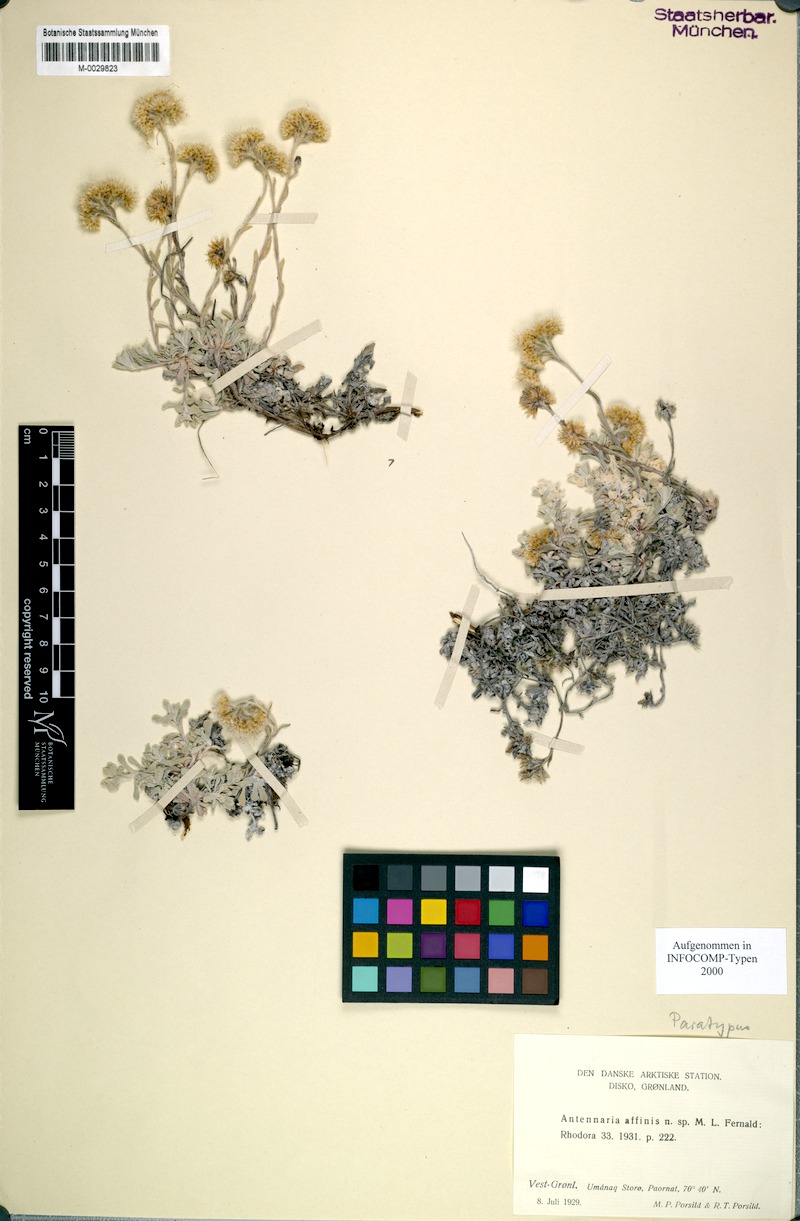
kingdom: Plantae
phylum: Tracheophyta
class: Magnoliopsida
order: Asterales
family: Asteraceae
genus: Antennaria
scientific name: Antennaria rosea
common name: Rosy pussytoes
